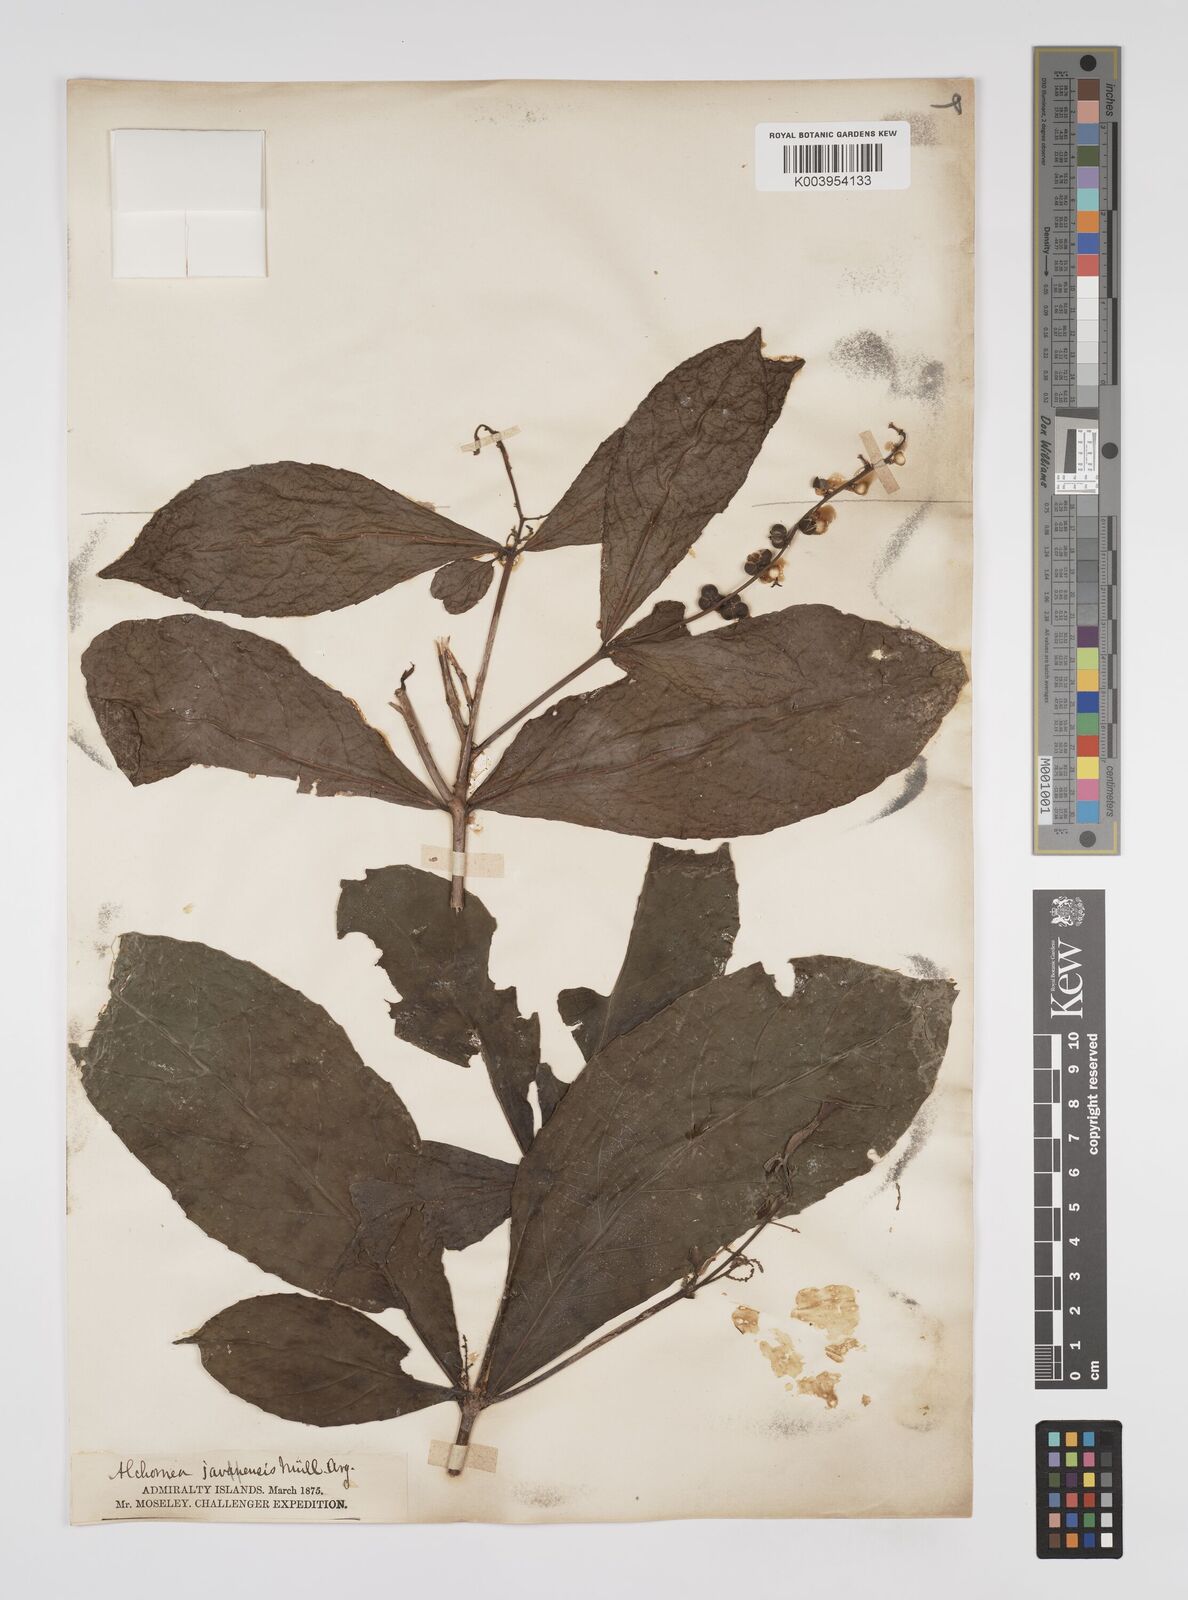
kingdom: Plantae
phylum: Tracheophyta
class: Magnoliopsida
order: Malpighiales
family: Euphorbiaceae
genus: Alchornea
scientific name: Alchornea rugosa
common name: Alchorntree
